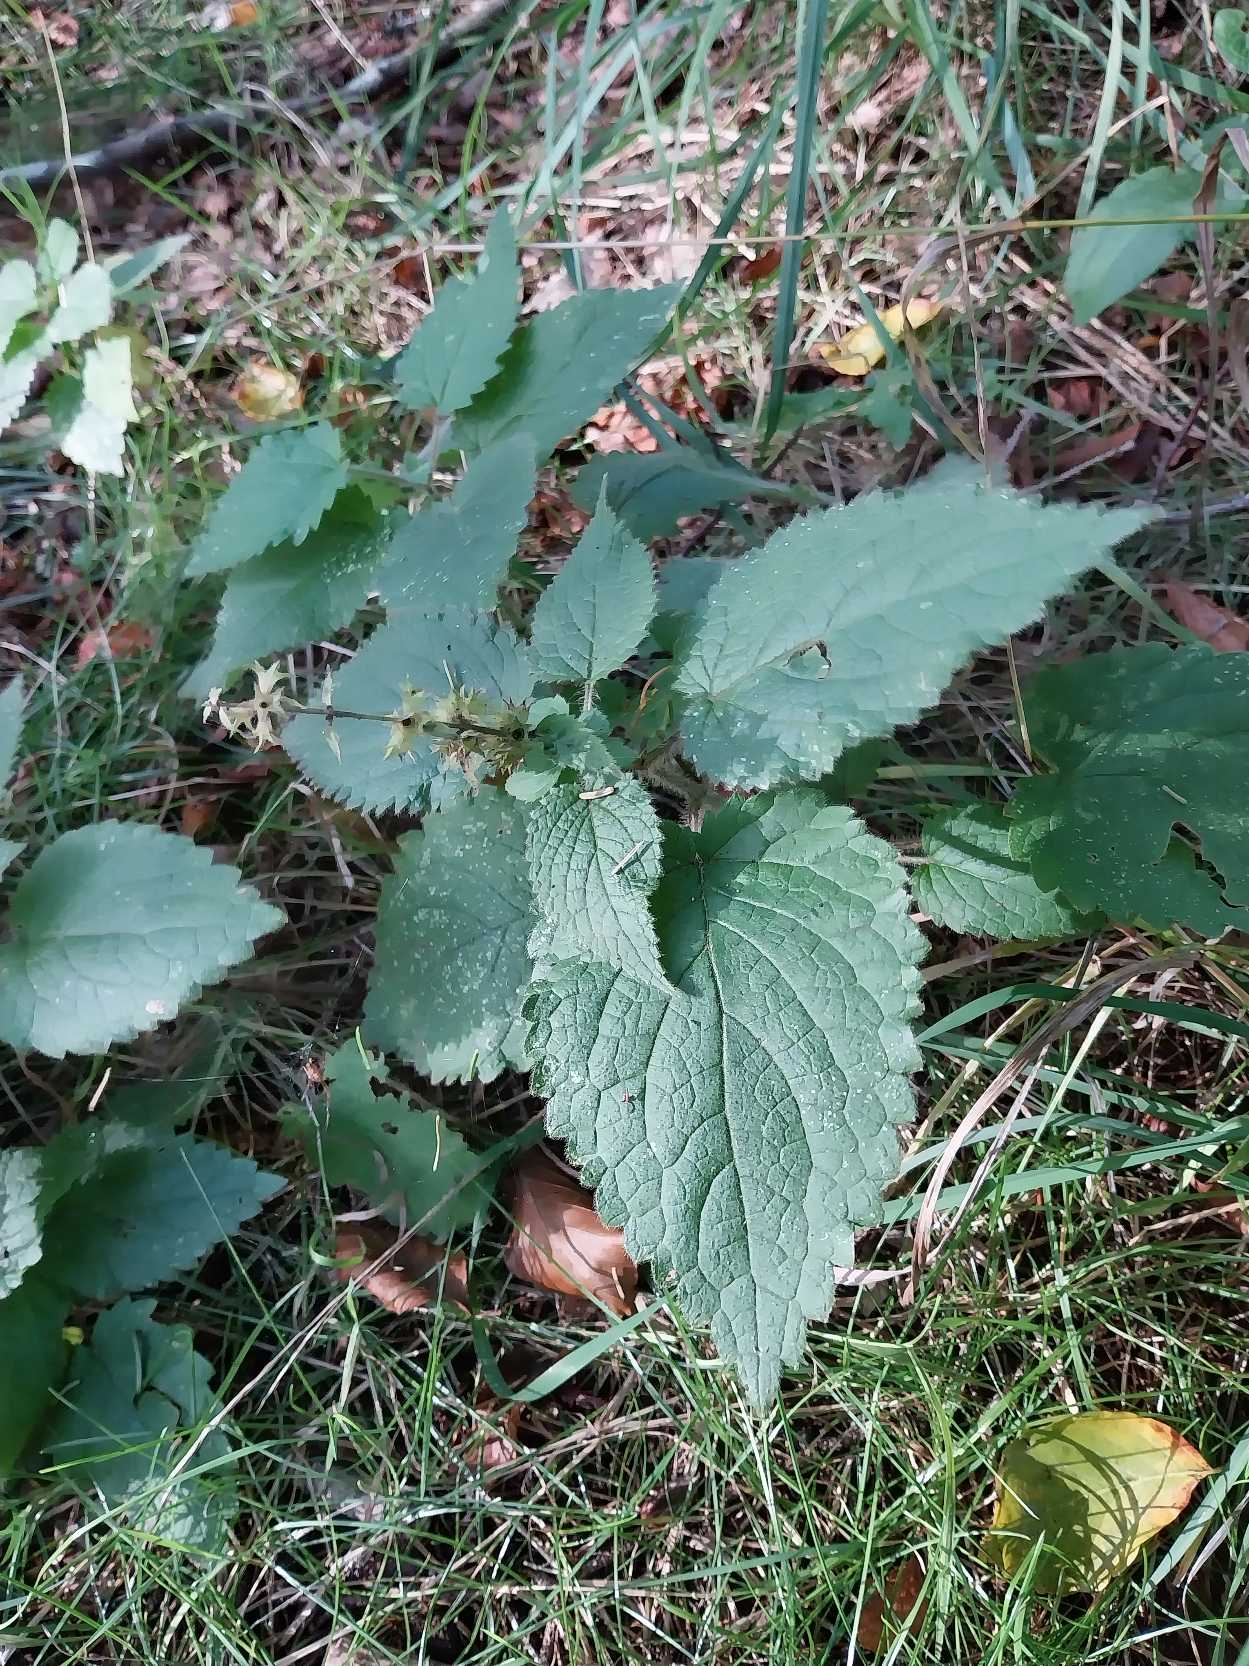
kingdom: Plantae
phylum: Tracheophyta
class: Magnoliopsida
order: Lamiales
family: Lamiaceae
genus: Stachys
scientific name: Stachys sylvatica
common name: Skov-galtetand
